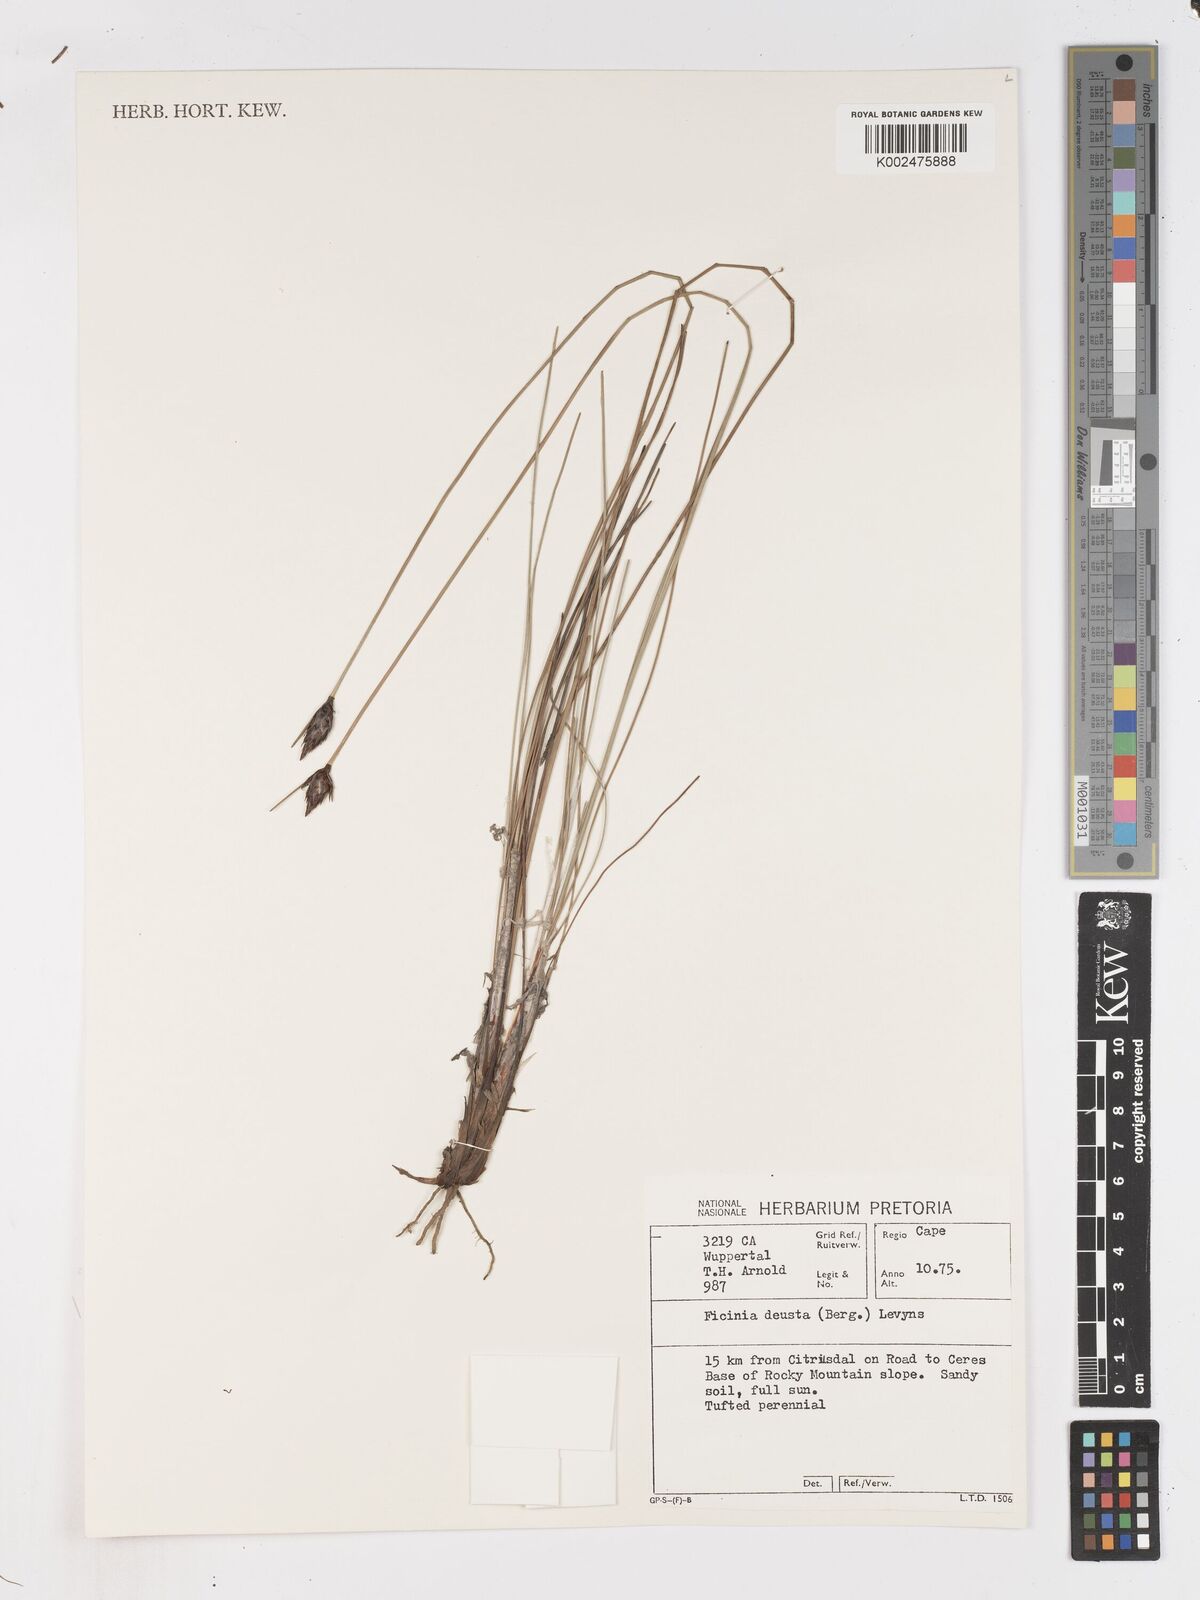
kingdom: Plantae
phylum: Tracheophyta
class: Liliopsida
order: Poales
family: Cyperaceae
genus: Ficinia
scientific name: Ficinia deusta
